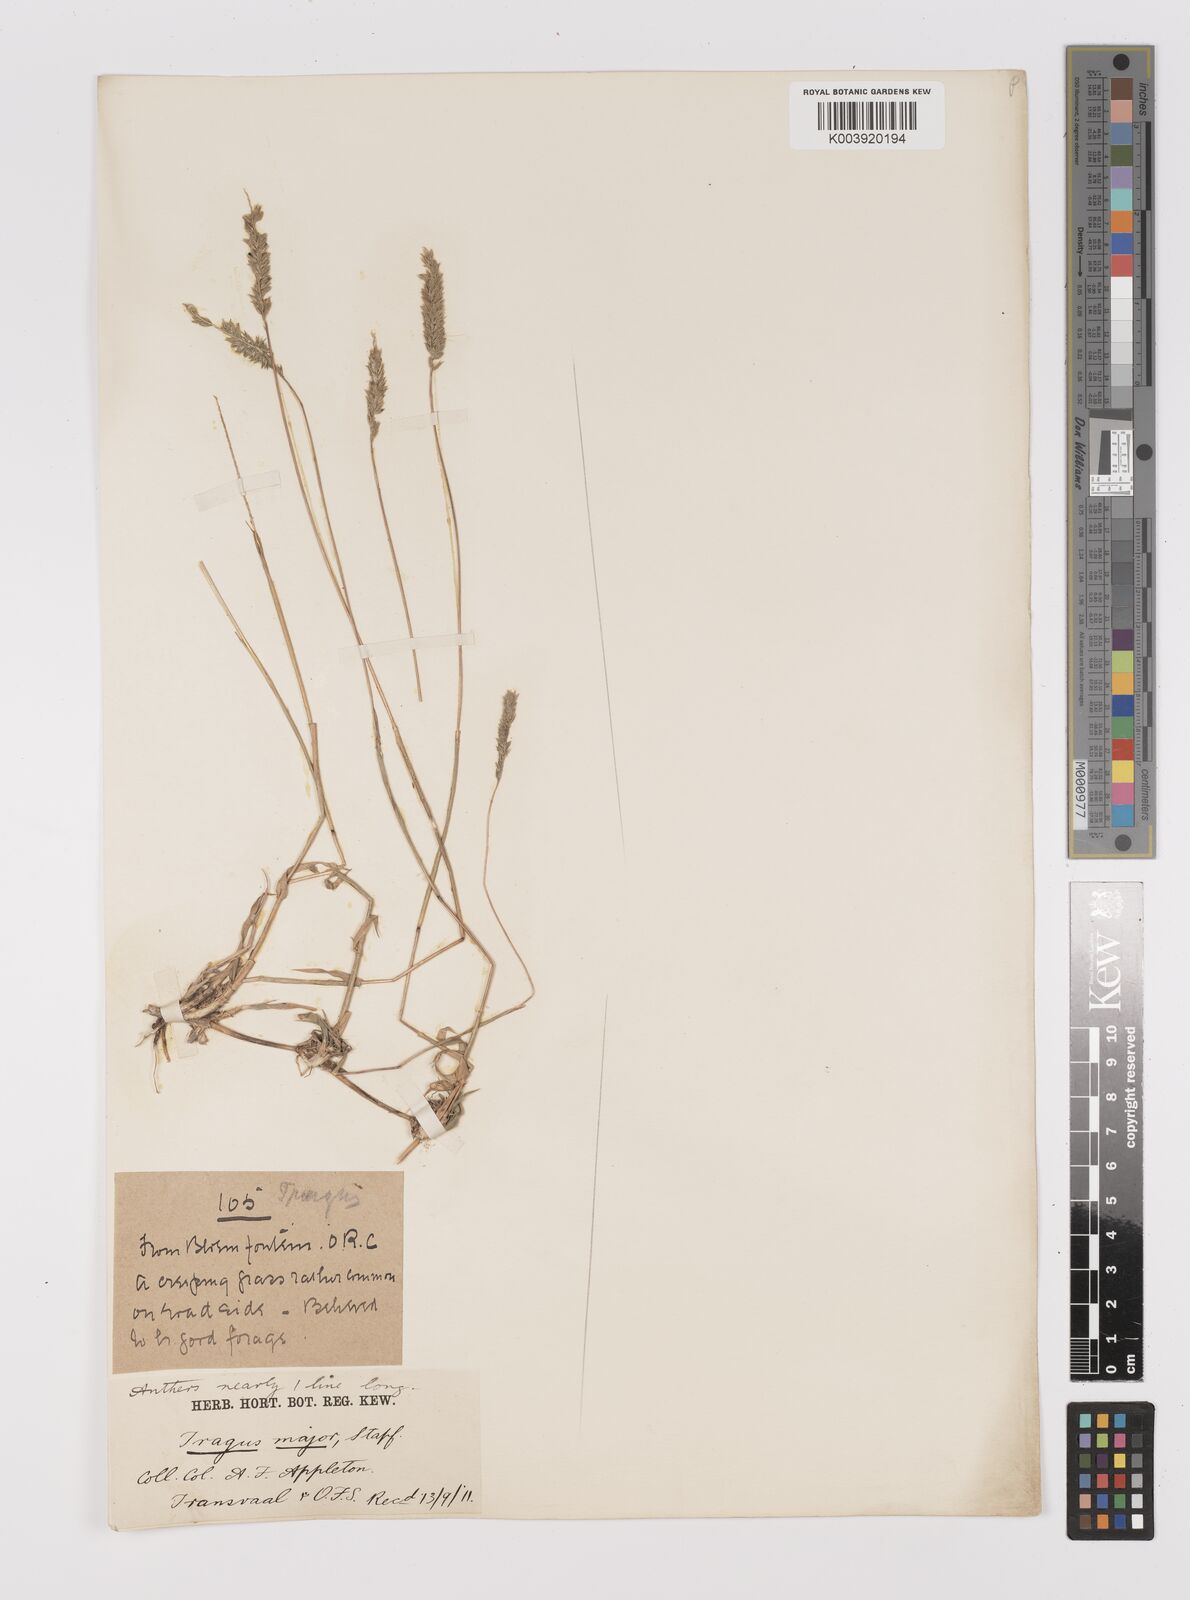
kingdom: Plantae
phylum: Tracheophyta
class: Liliopsida
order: Poales
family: Poaceae
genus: Tragus
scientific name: Tragus koelerioides
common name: Creeping carrot-seed grass
